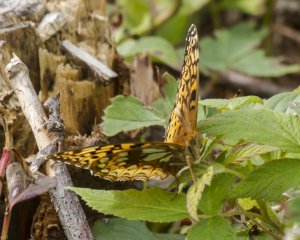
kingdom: Animalia
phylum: Arthropoda
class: Insecta
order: Lepidoptera
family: Nymphalidae
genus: Speyeria
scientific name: Speyeria cybele
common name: Great Spangled Fritillary
